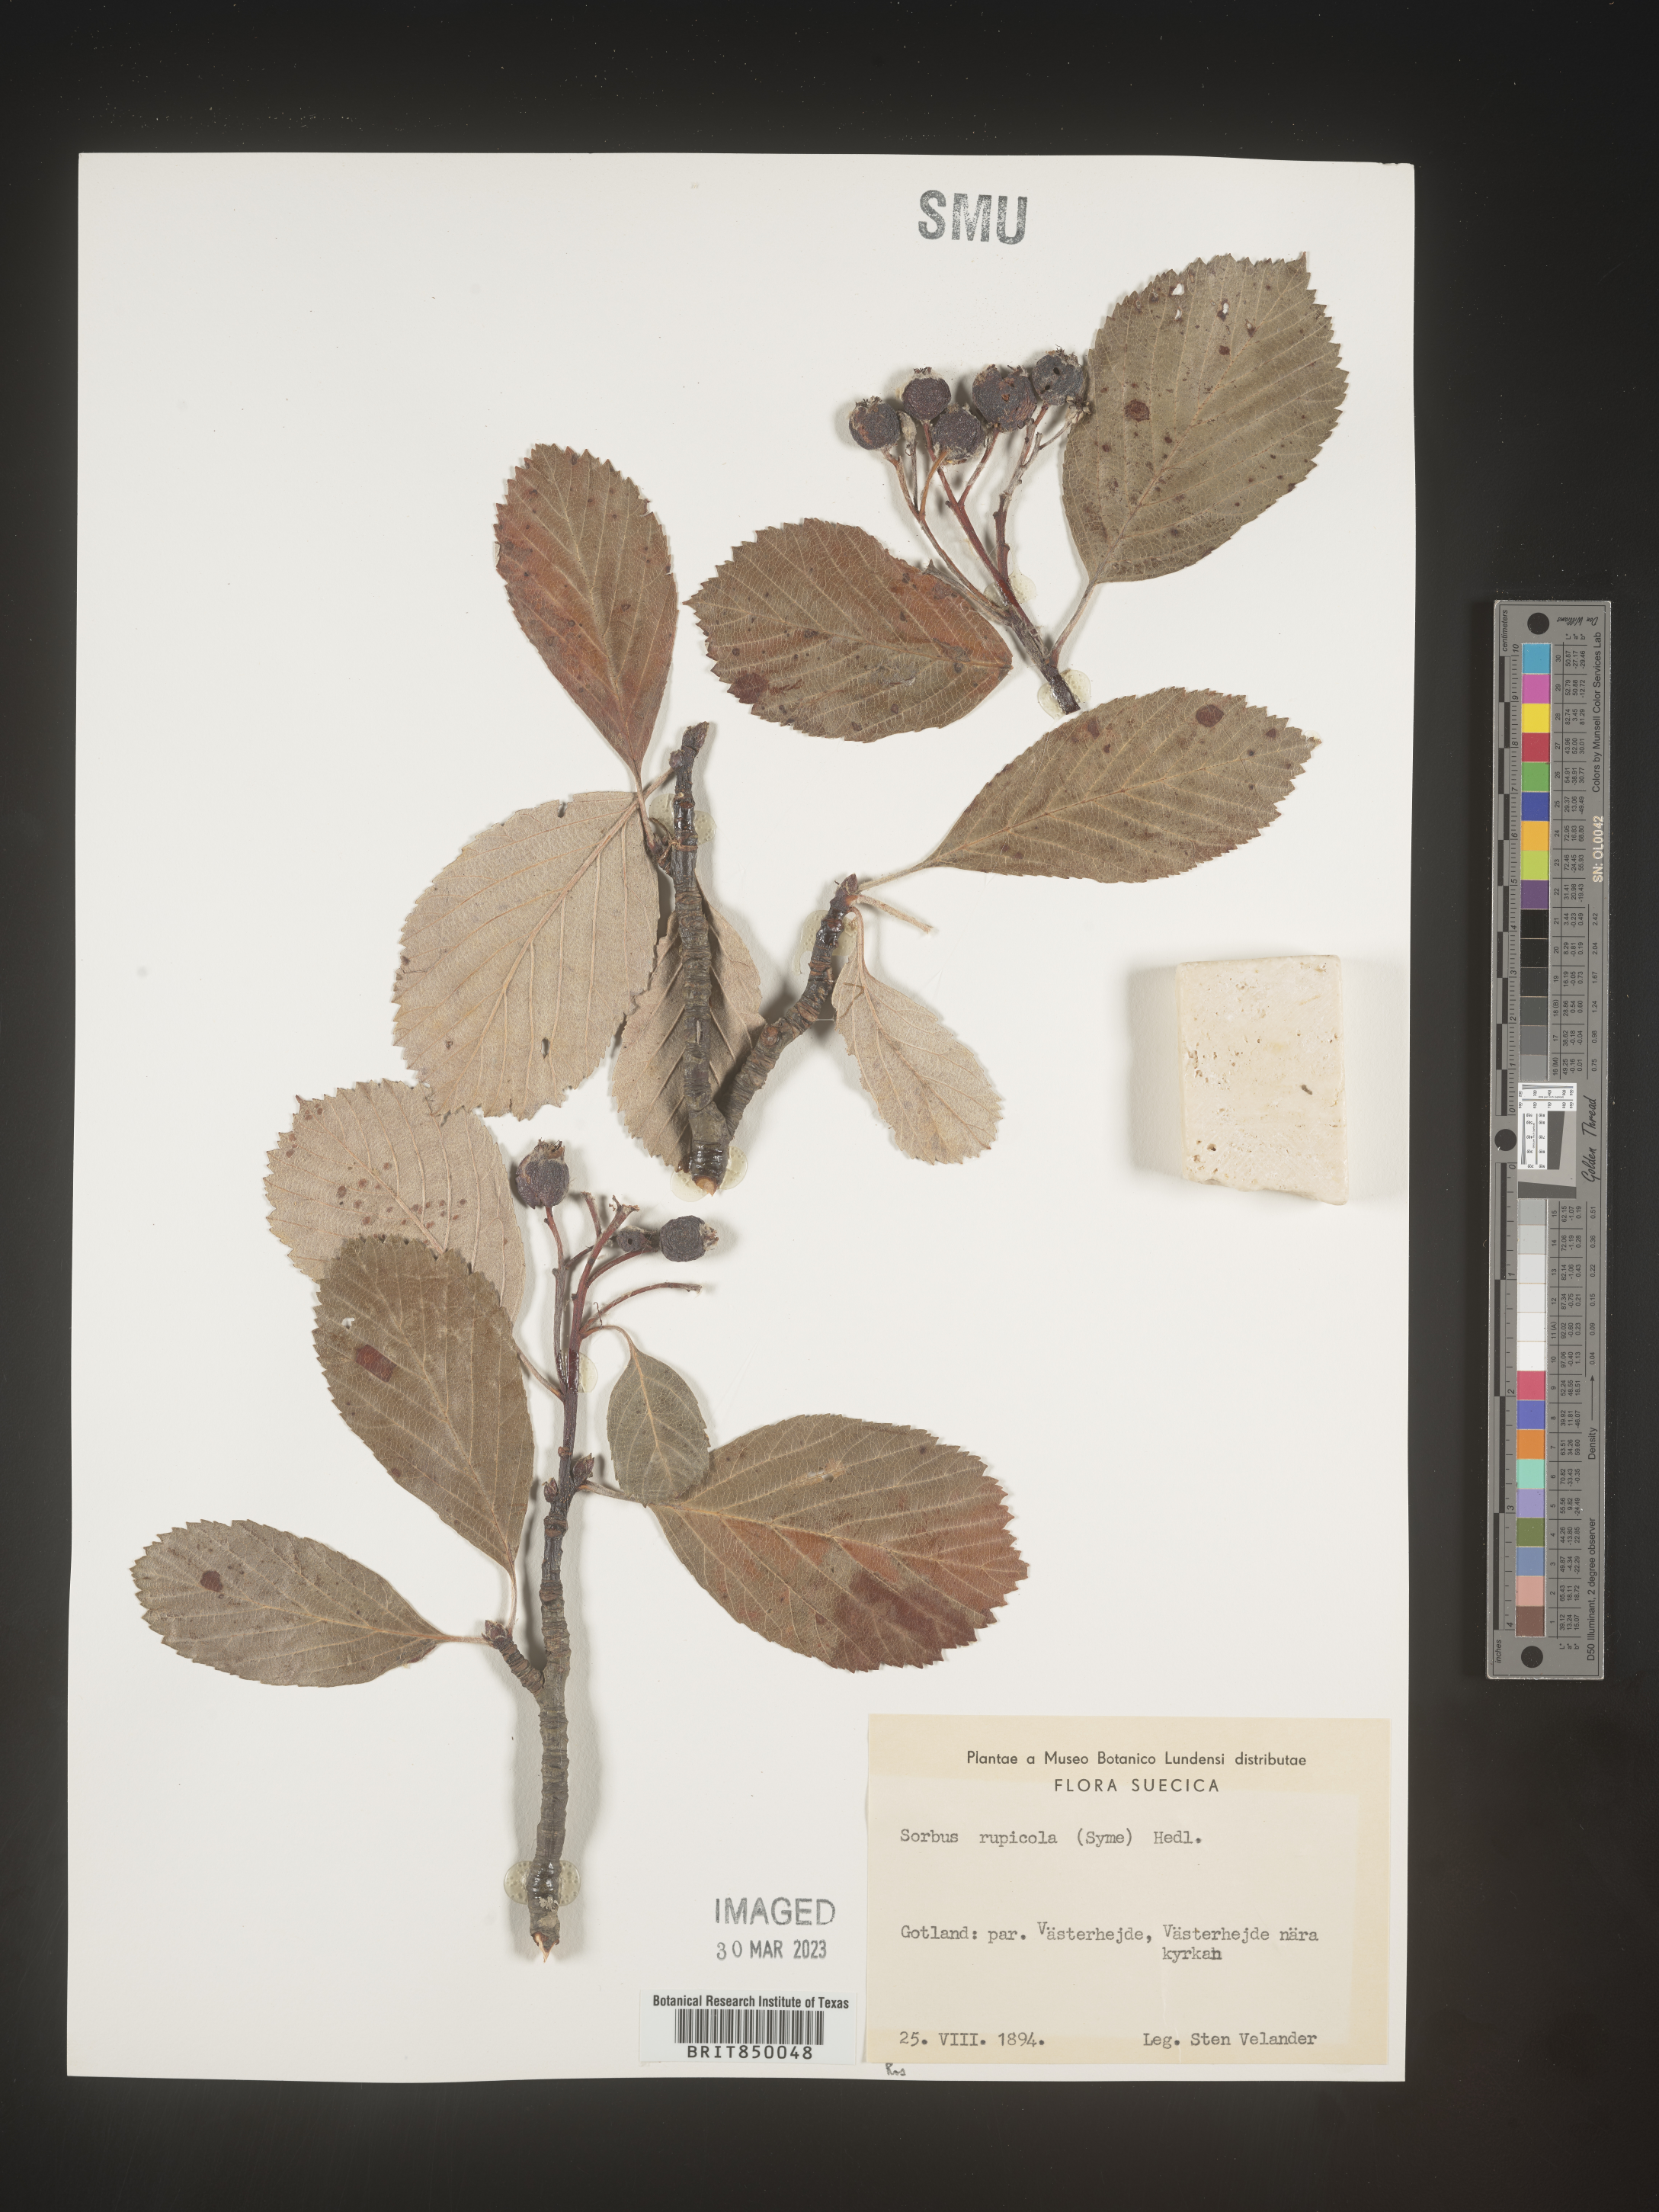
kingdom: Plantae
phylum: Tracheophyta
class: Magnoliopsida
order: Rosales
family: Rosaceae
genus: Sorbus
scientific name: Sorbus
